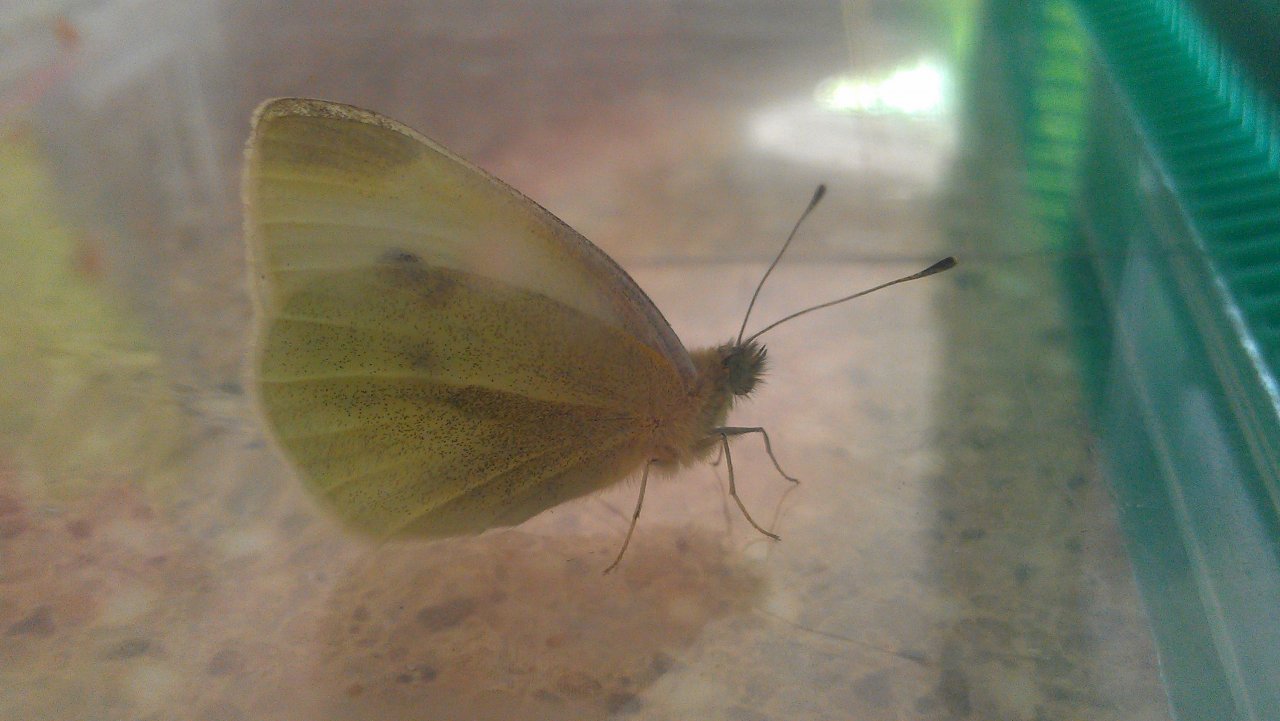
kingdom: Animalia
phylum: Arthropoda
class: Insecta
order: Lepidoptera
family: Pieridae
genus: Pieris
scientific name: Pieris rapae
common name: Cabbage White
